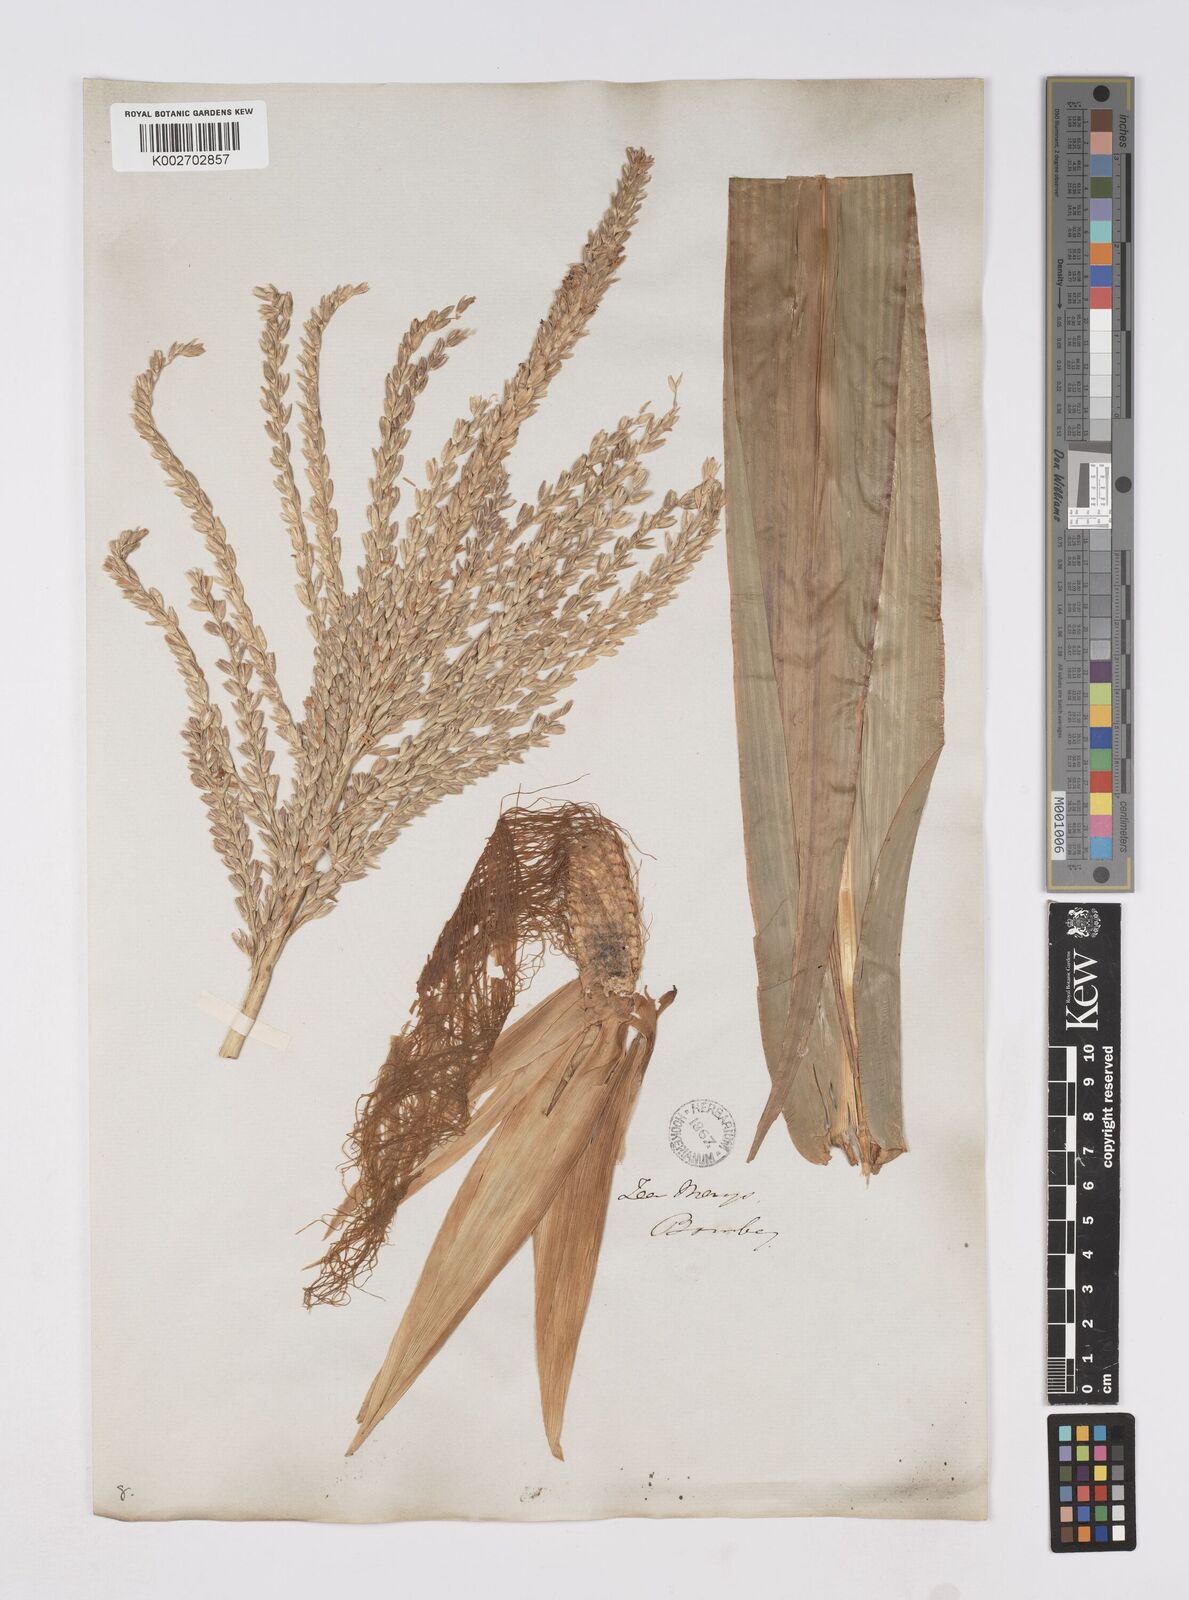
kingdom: Plantae
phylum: Tracheophyta
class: Liliopsida
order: Poales
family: Poaceae
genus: Zea
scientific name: Zea mays
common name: Maize
